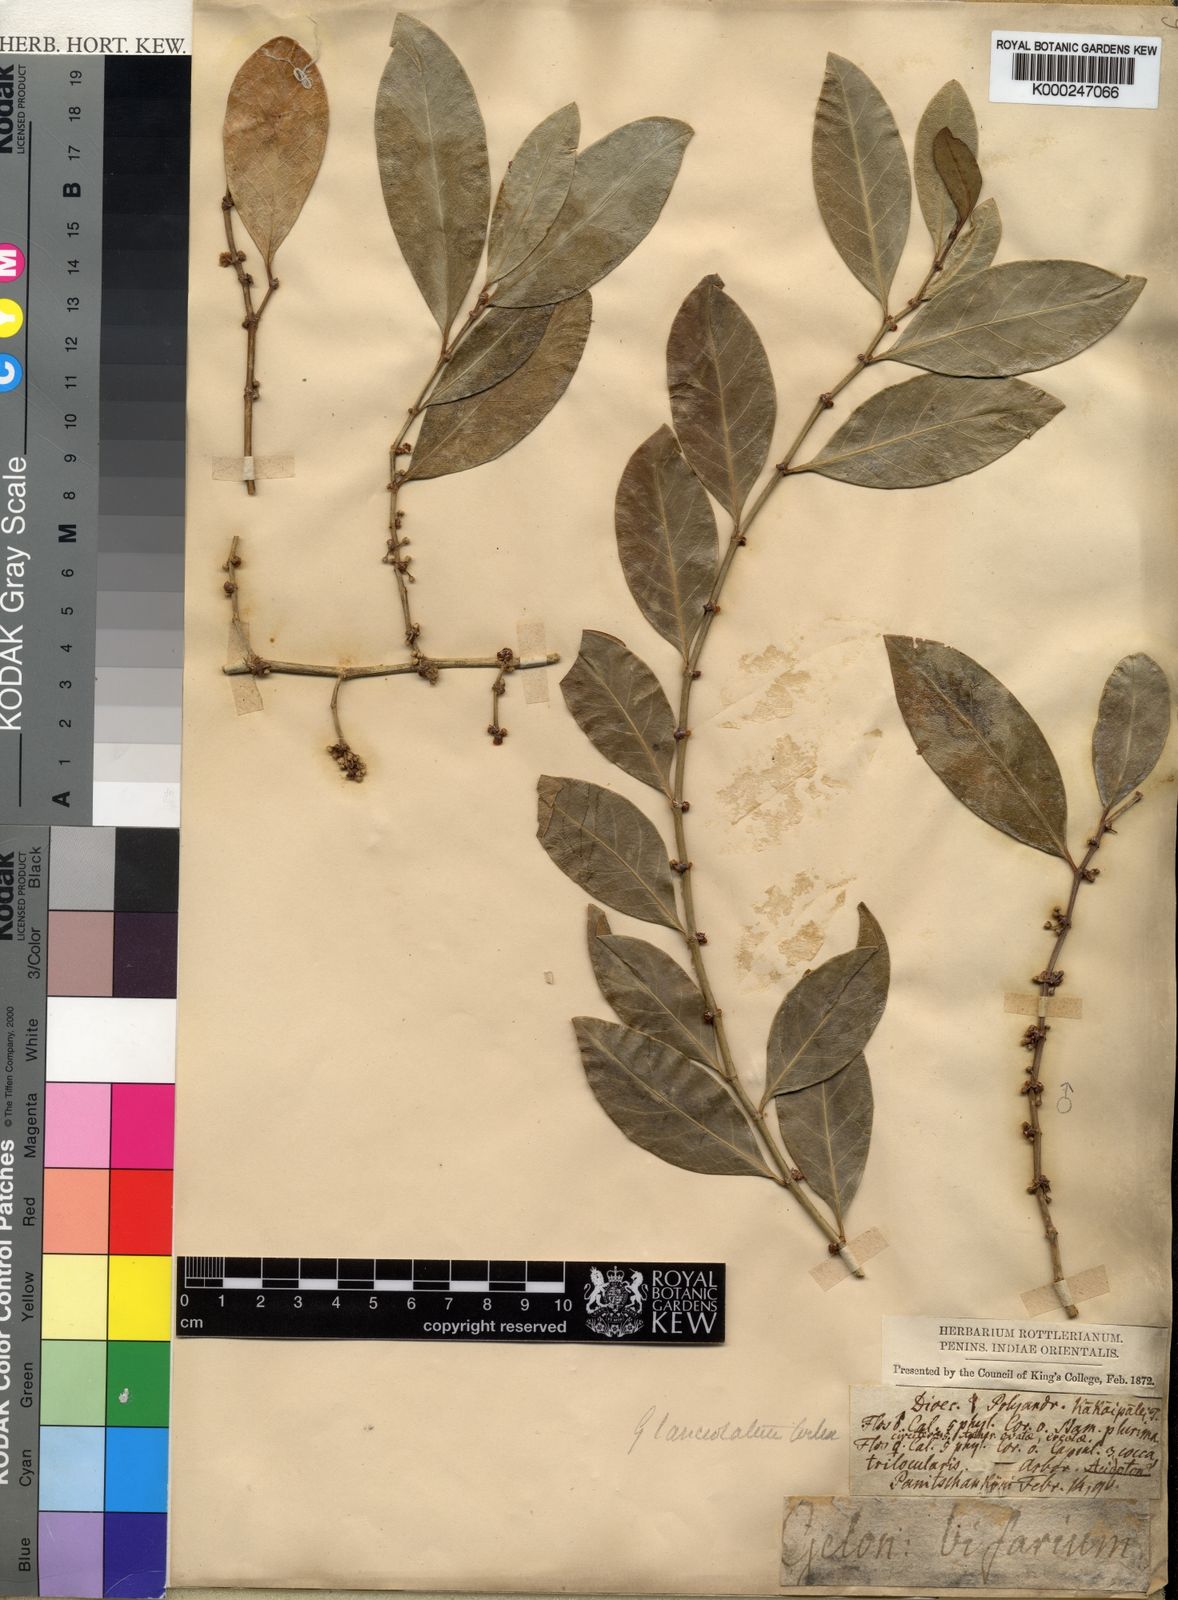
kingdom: Plantae
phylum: Tracheophyta
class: Magnoliopsida
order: Malpighiales
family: Euphorbiaceae
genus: Suregada
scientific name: Suregada lanceolata
